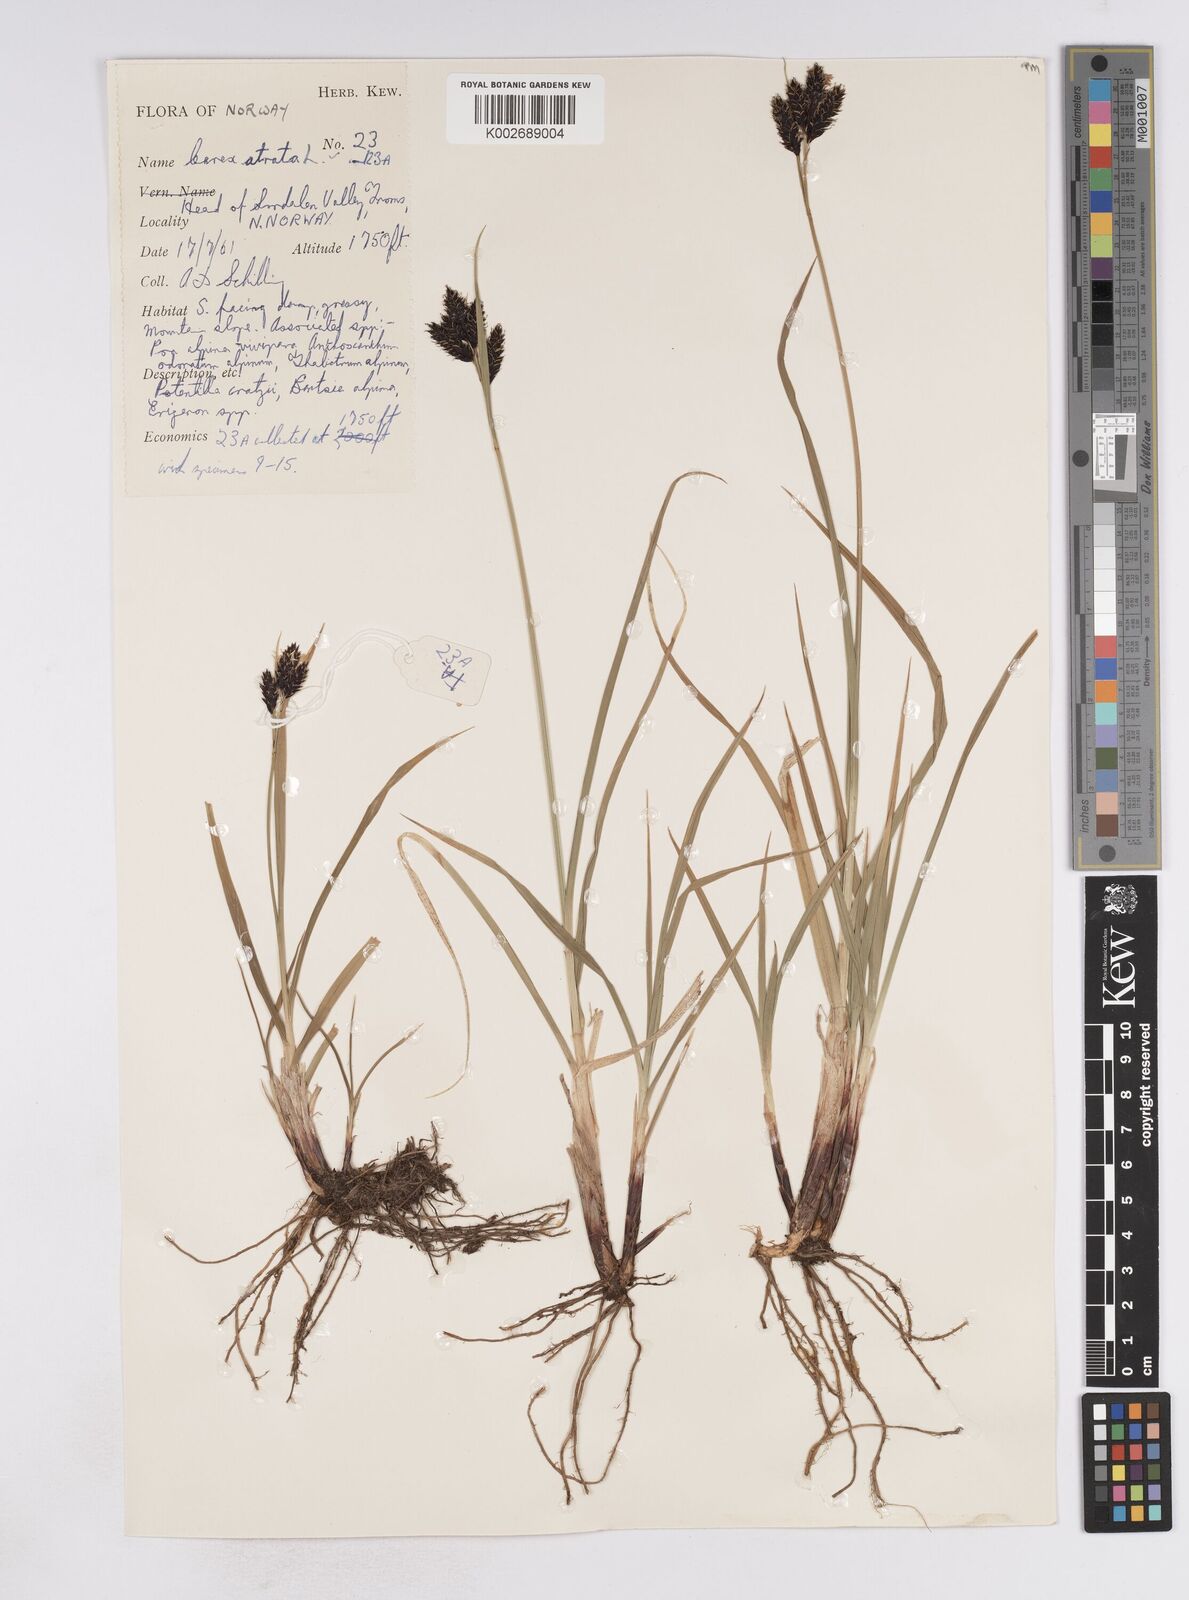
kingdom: Plantae
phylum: Tracheophyta
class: Liliopsida
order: Poales
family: Cyperaceae
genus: Carex
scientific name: Carex atrata
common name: Black alpine sedge
